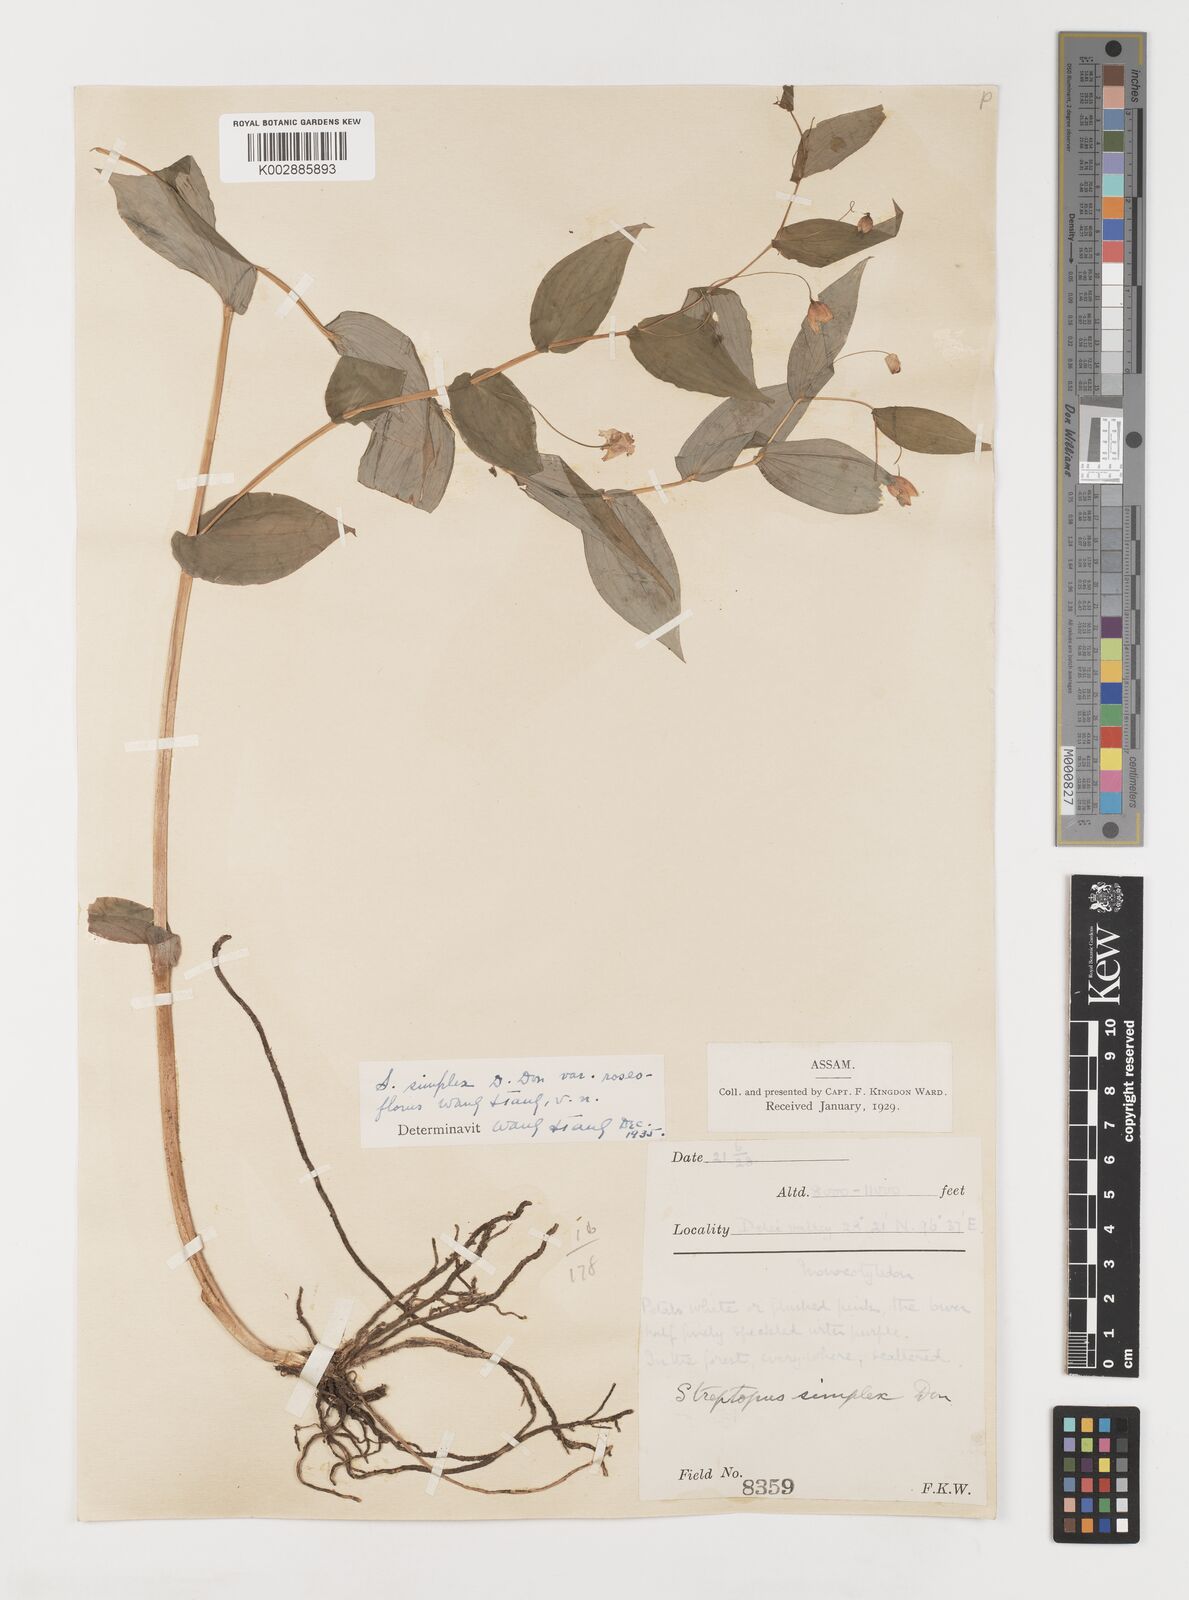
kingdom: Plantae
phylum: Tracheophyta
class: Liliopsida
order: Liliales
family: Liliaceae
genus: Streptopus
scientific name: Streptopus simplex
